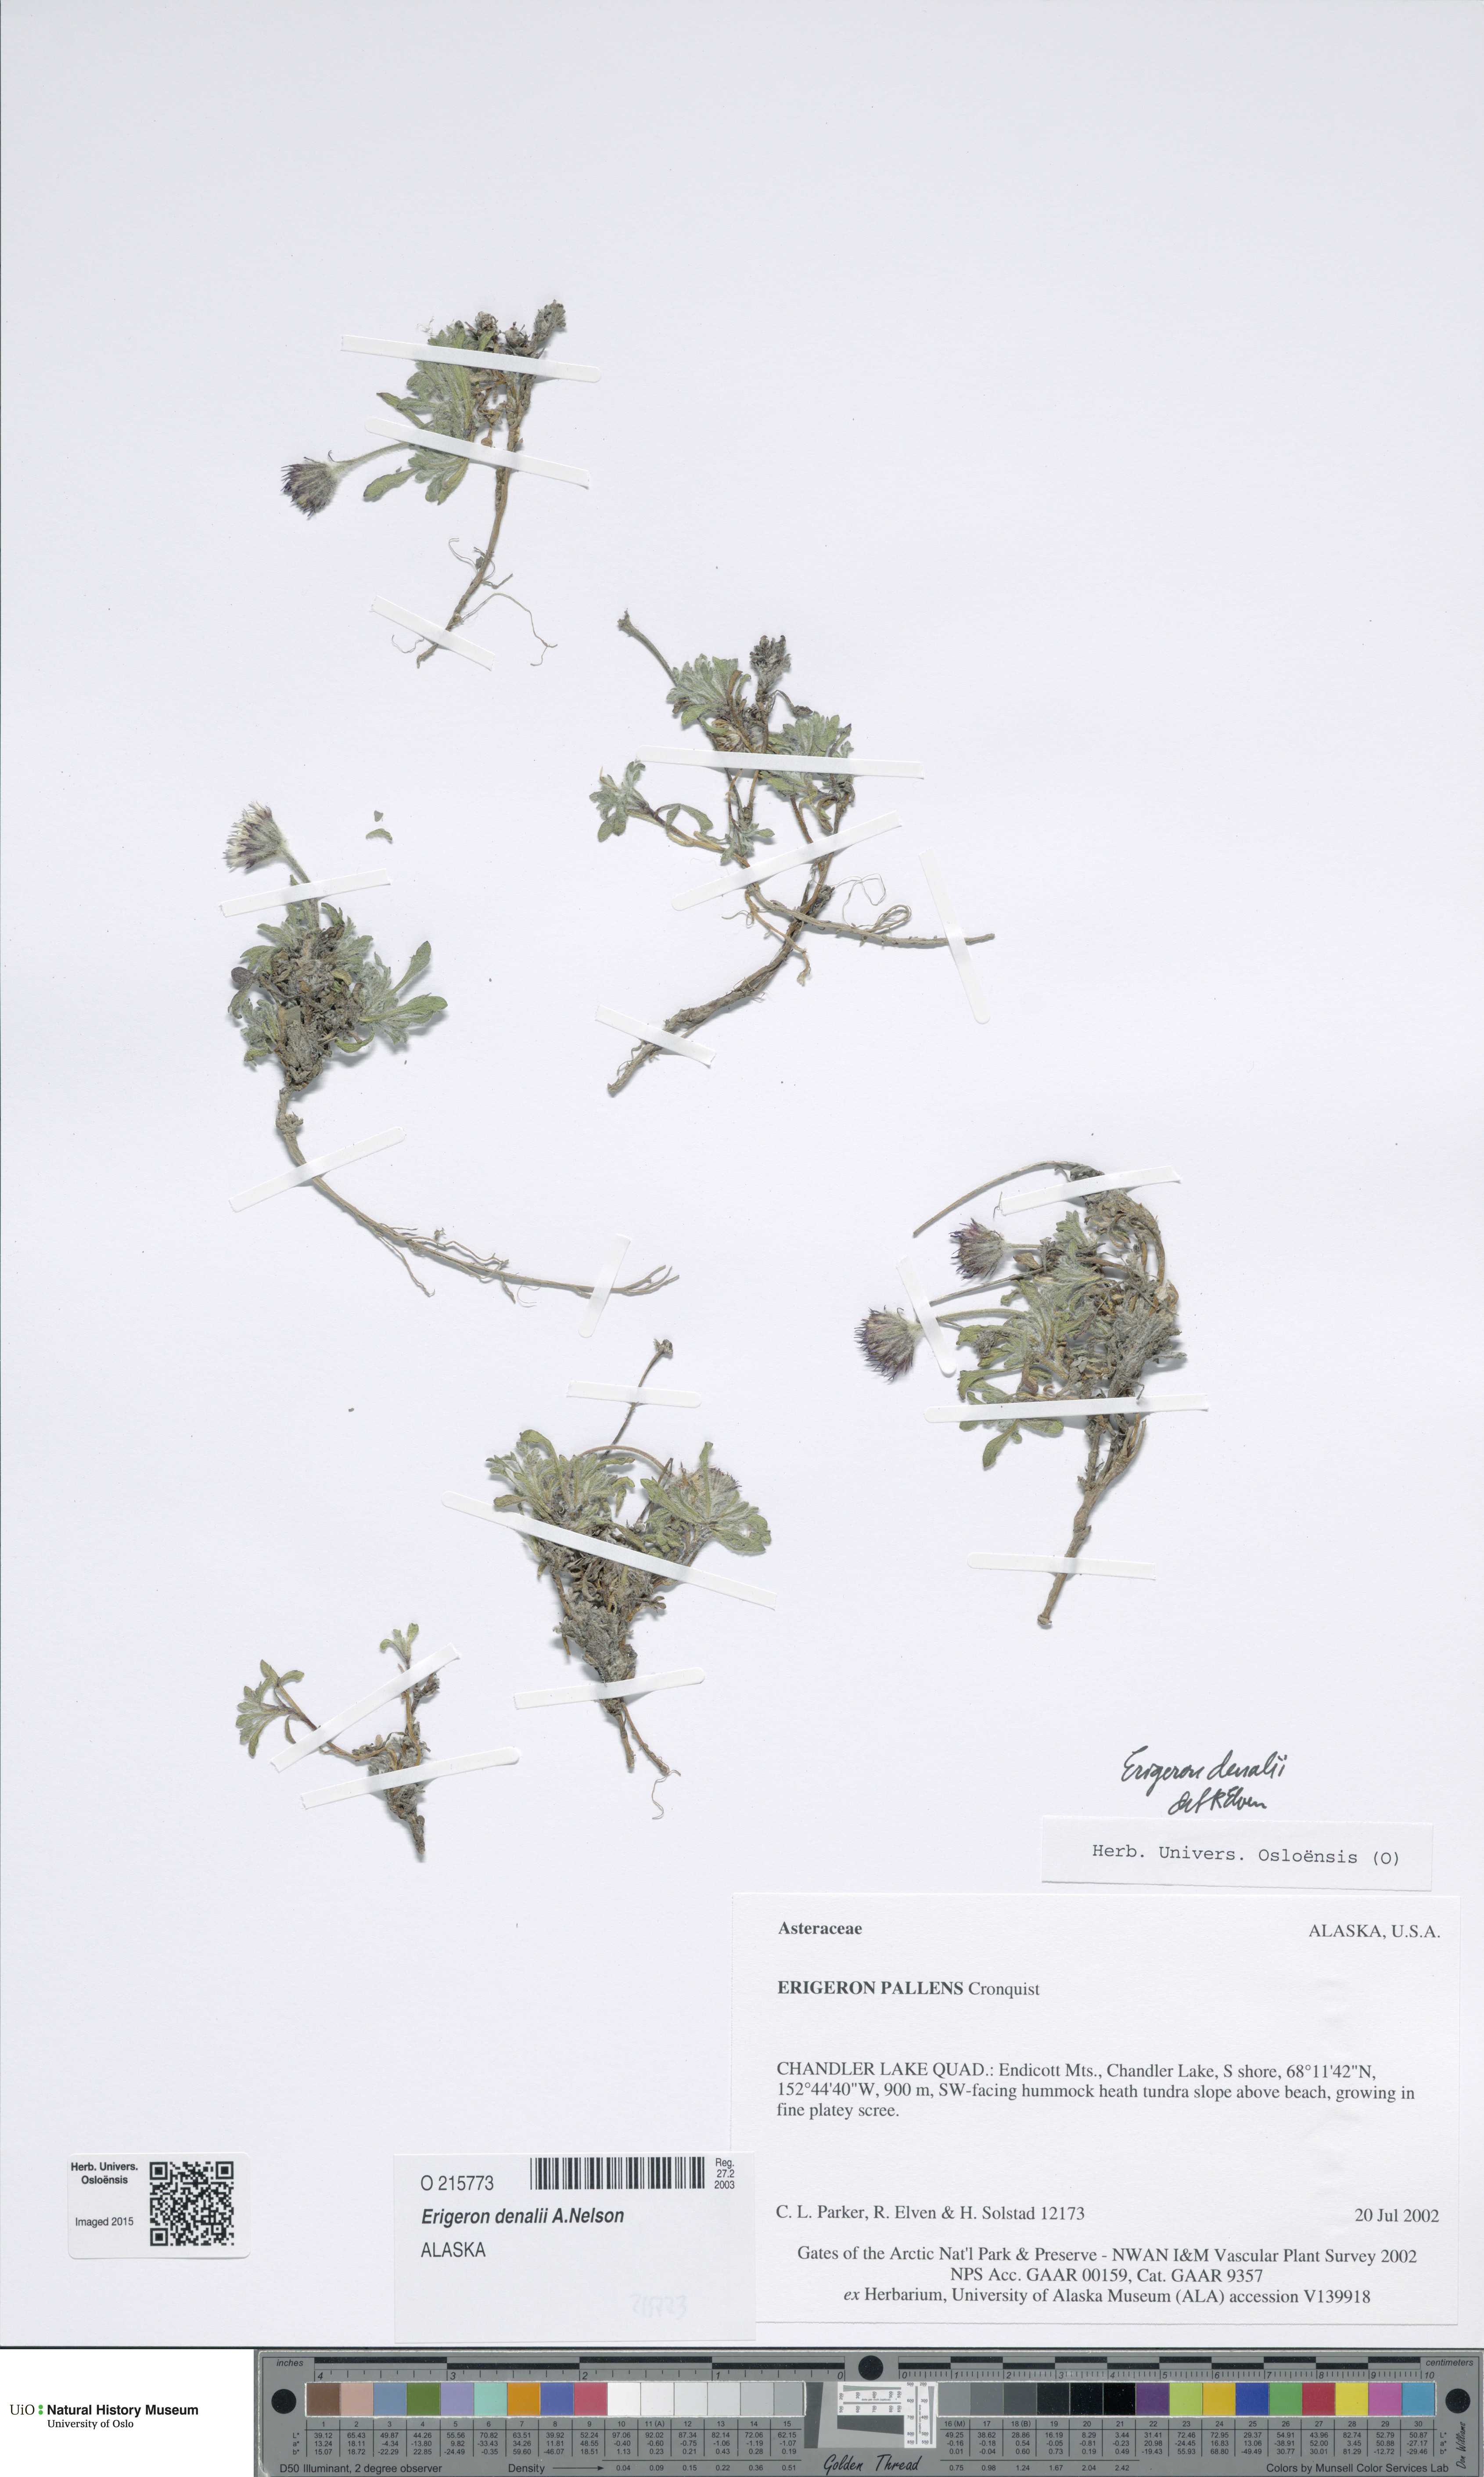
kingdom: Plantae
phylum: Tracheophyta
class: Magnoliopsida
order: Asterales
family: Asteraceae
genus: Erigeron
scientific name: Erigeron denalii
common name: Denali fleabane
